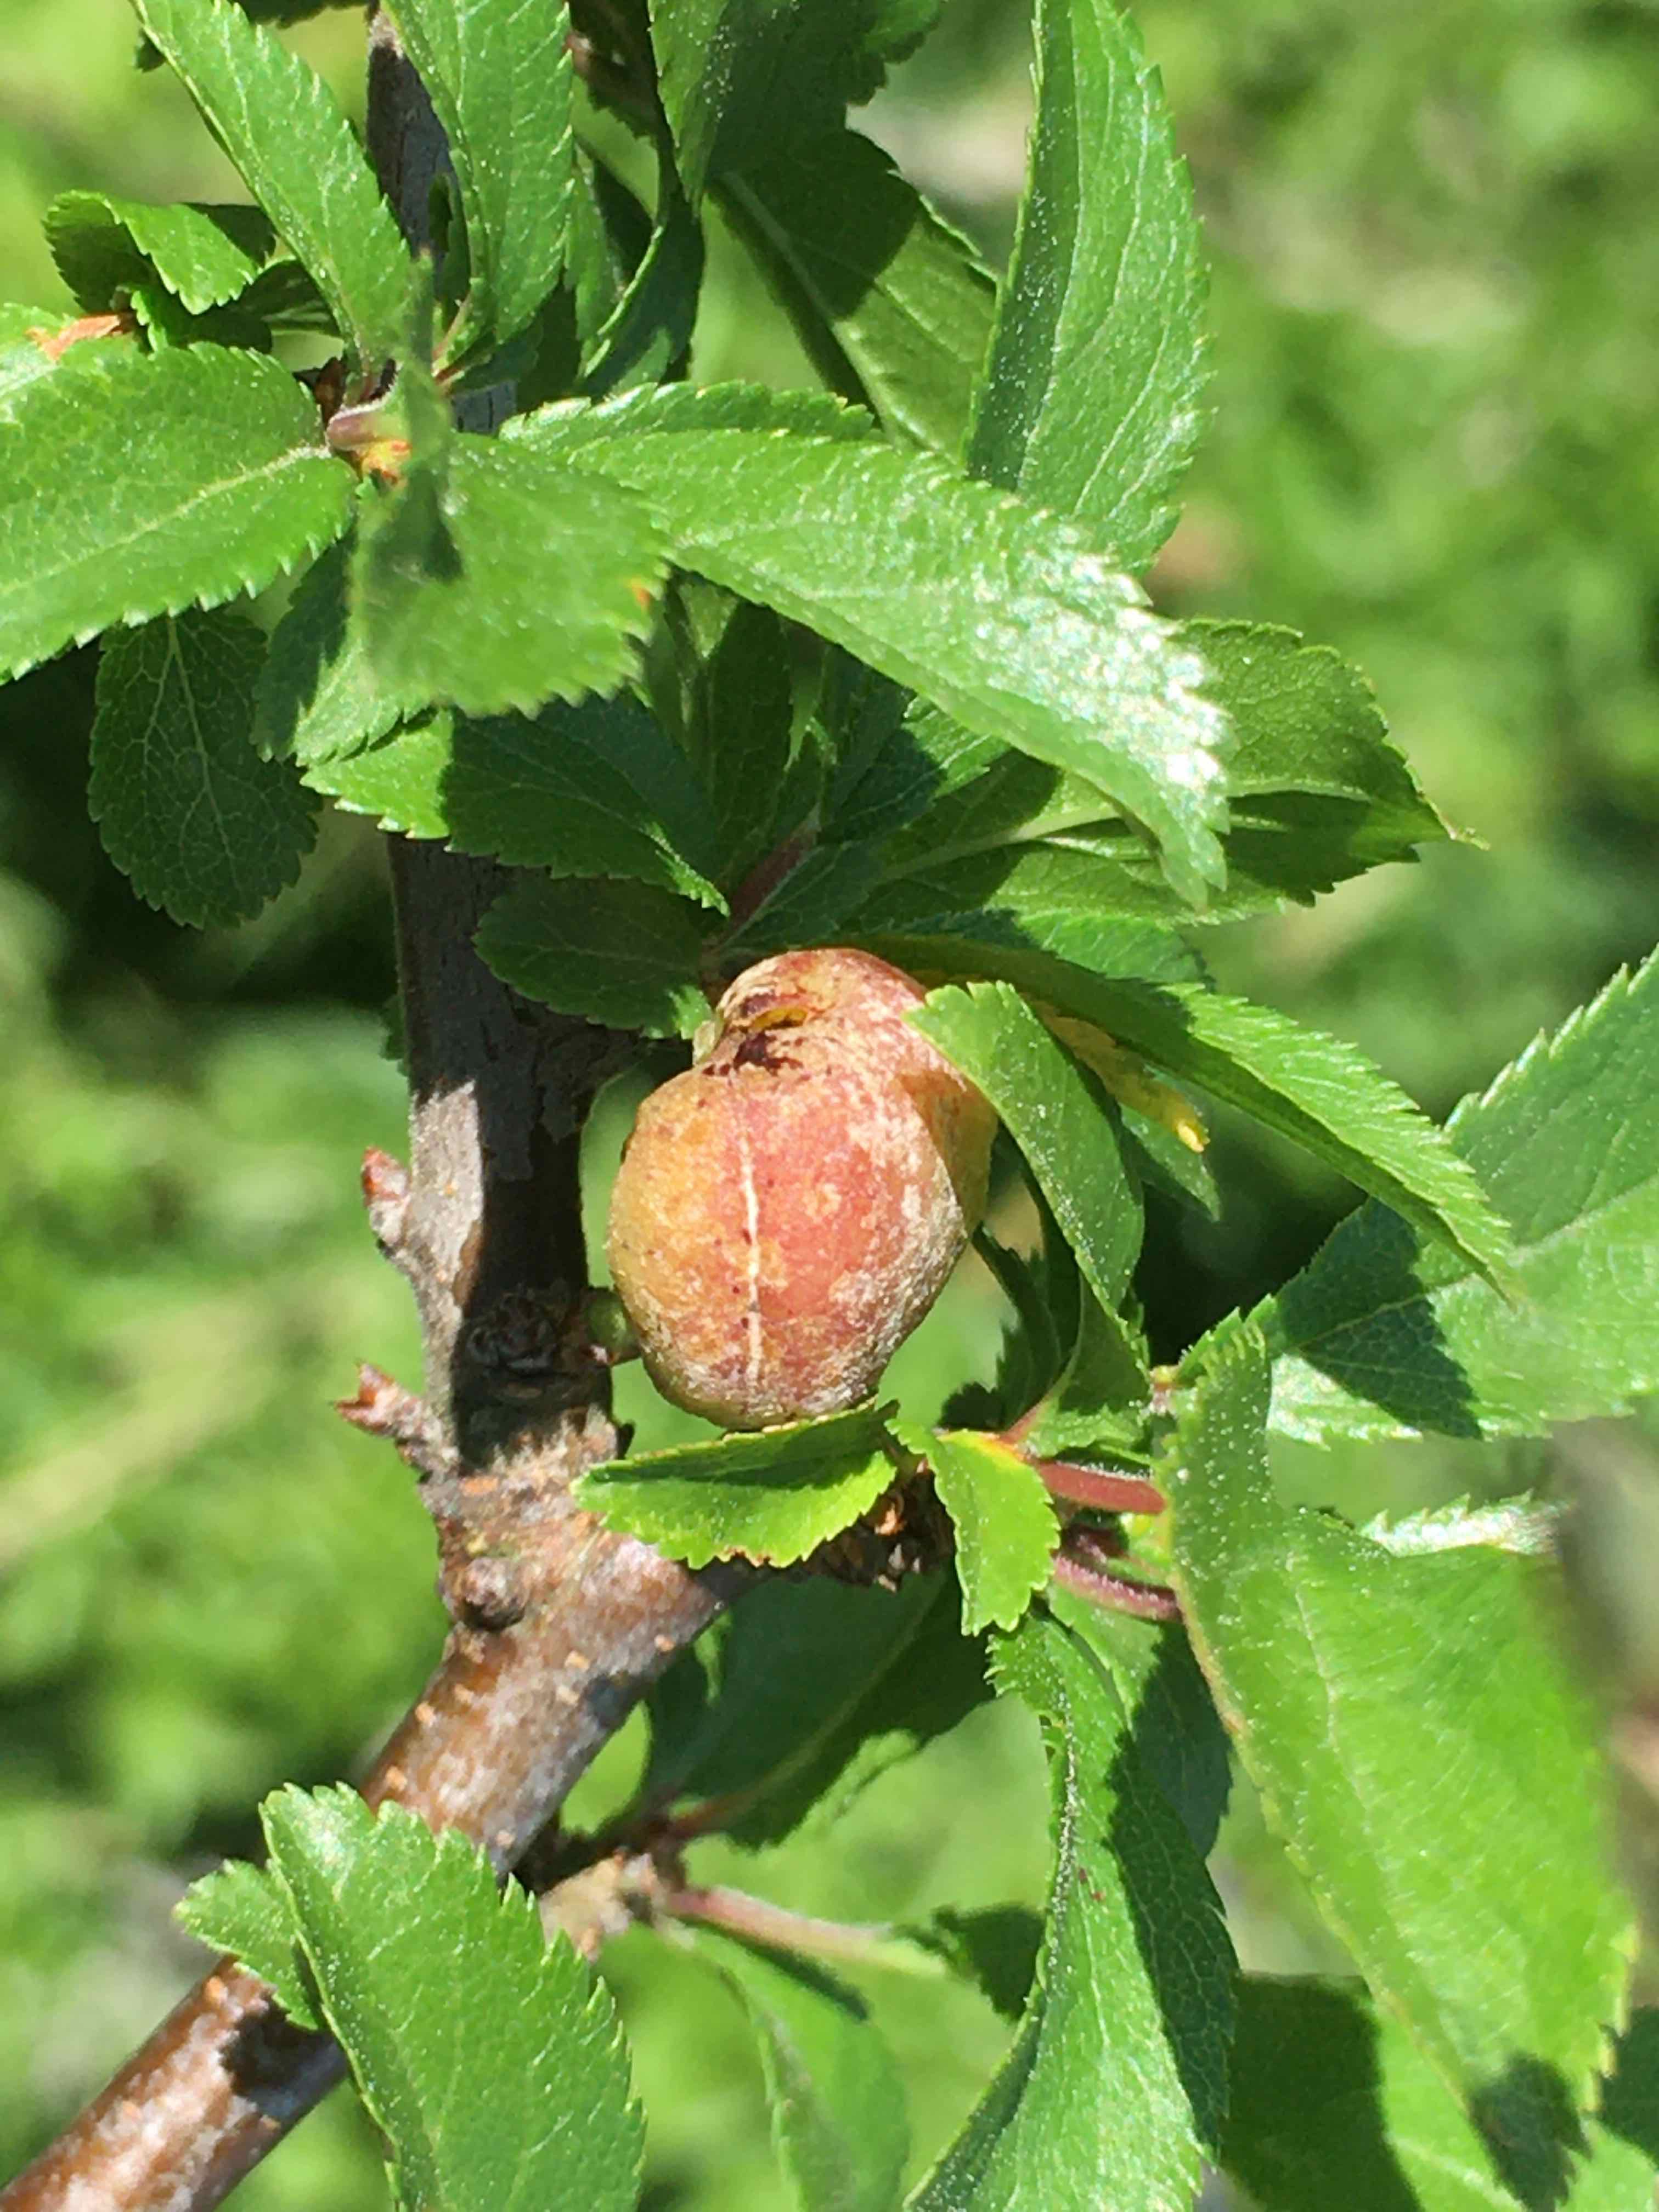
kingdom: Fungi
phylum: Ascomycota
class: Taphrinomycetes
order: Taphrinales
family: Taphrinaceae
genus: Taphrina
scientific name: Taphrina pruni
